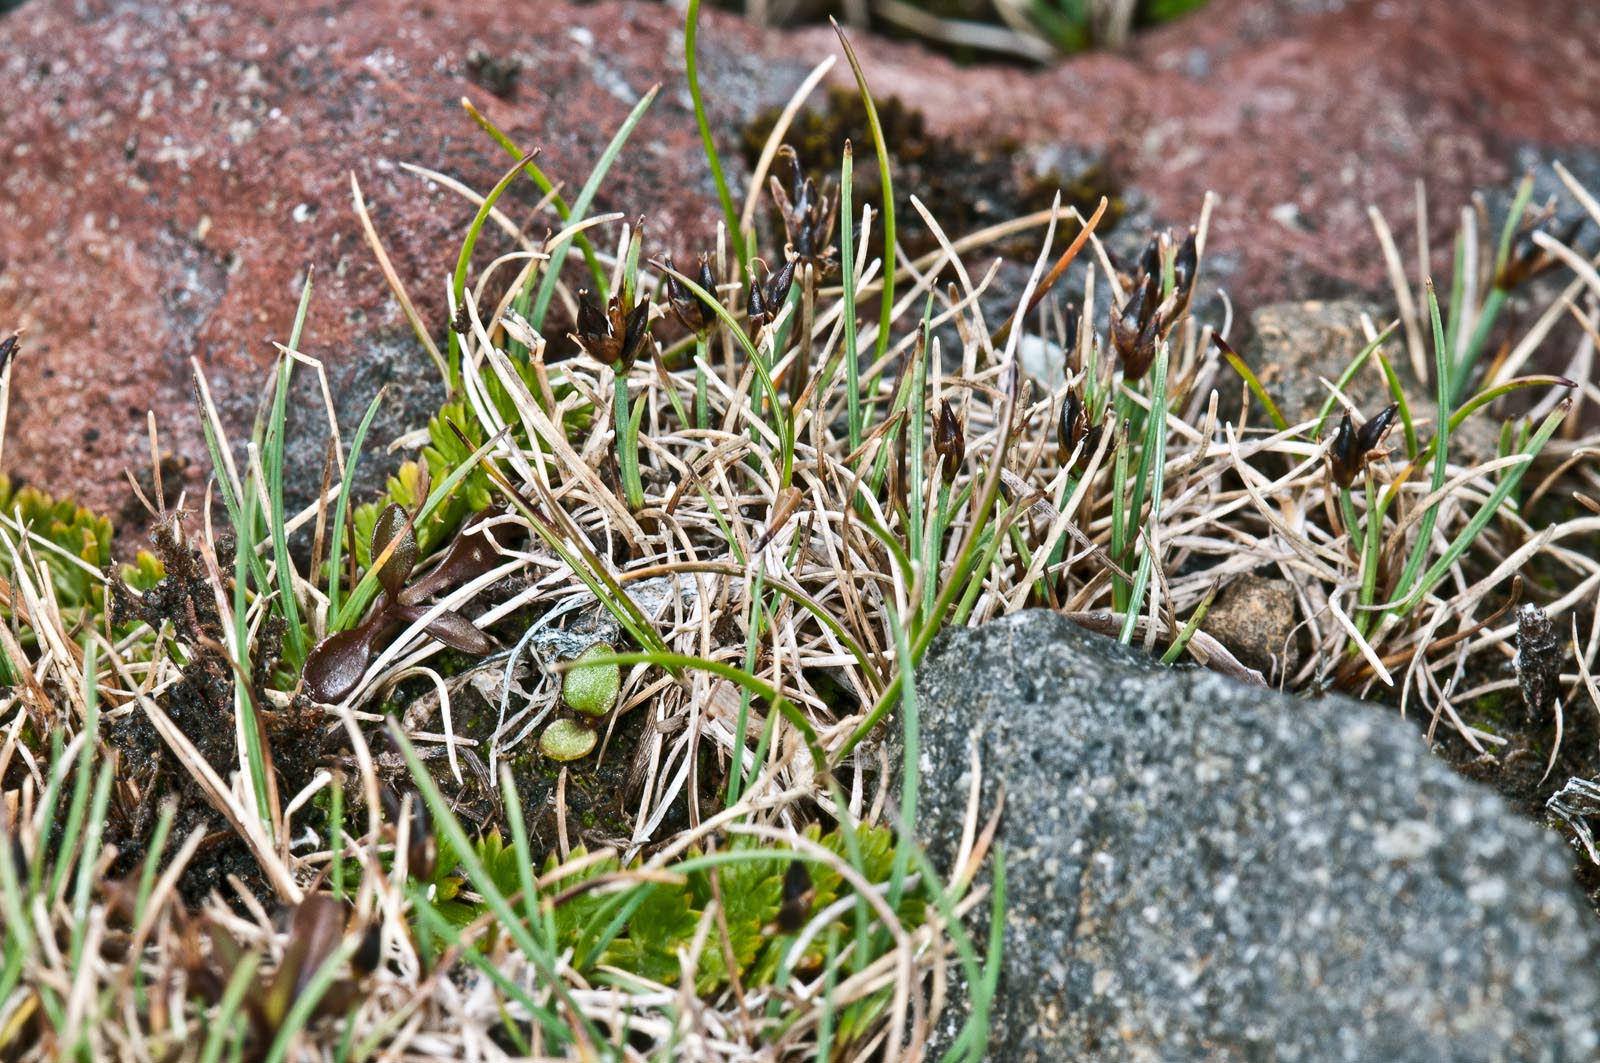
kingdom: Plantae
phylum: Tracheophyta
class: Liliopsida
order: Poales
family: Cyperaceae
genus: Carex
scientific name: Carex acicularis
